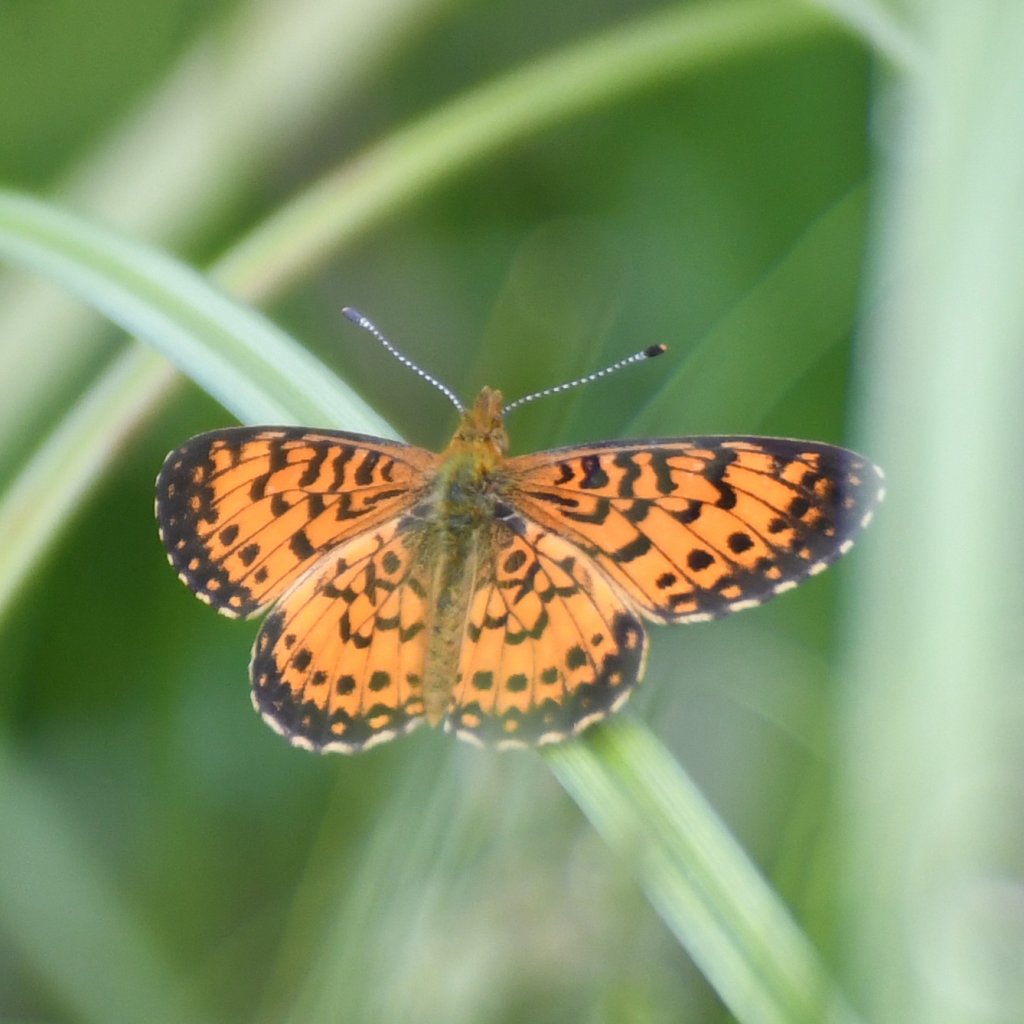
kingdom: Animalia
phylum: Arthropoda
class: Insecta
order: Lepidoptera
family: Nymphalidae
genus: Boloria
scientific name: Boloria selene
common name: Silver-bordered Fritillary
